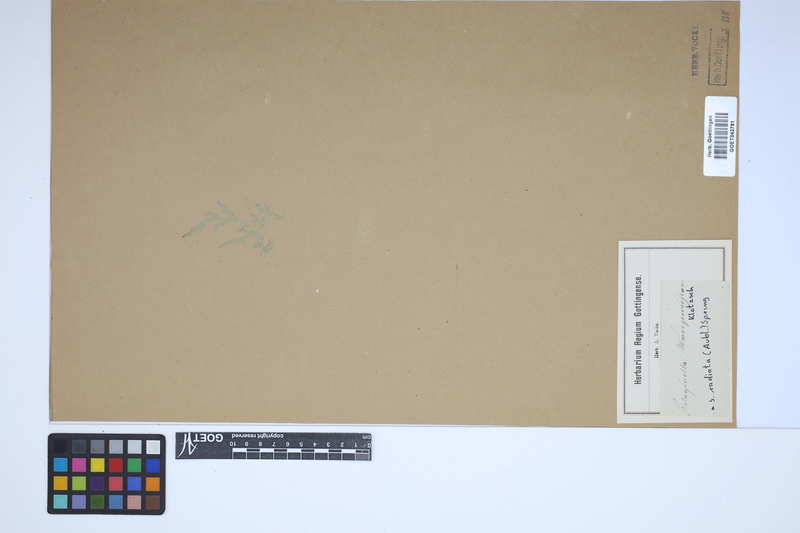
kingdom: Plantae
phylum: Tracheophyta
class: Lycopodiopsida
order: Selaginellales
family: Selaginellaceae
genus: Selaginella
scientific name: Selaginella radiata
